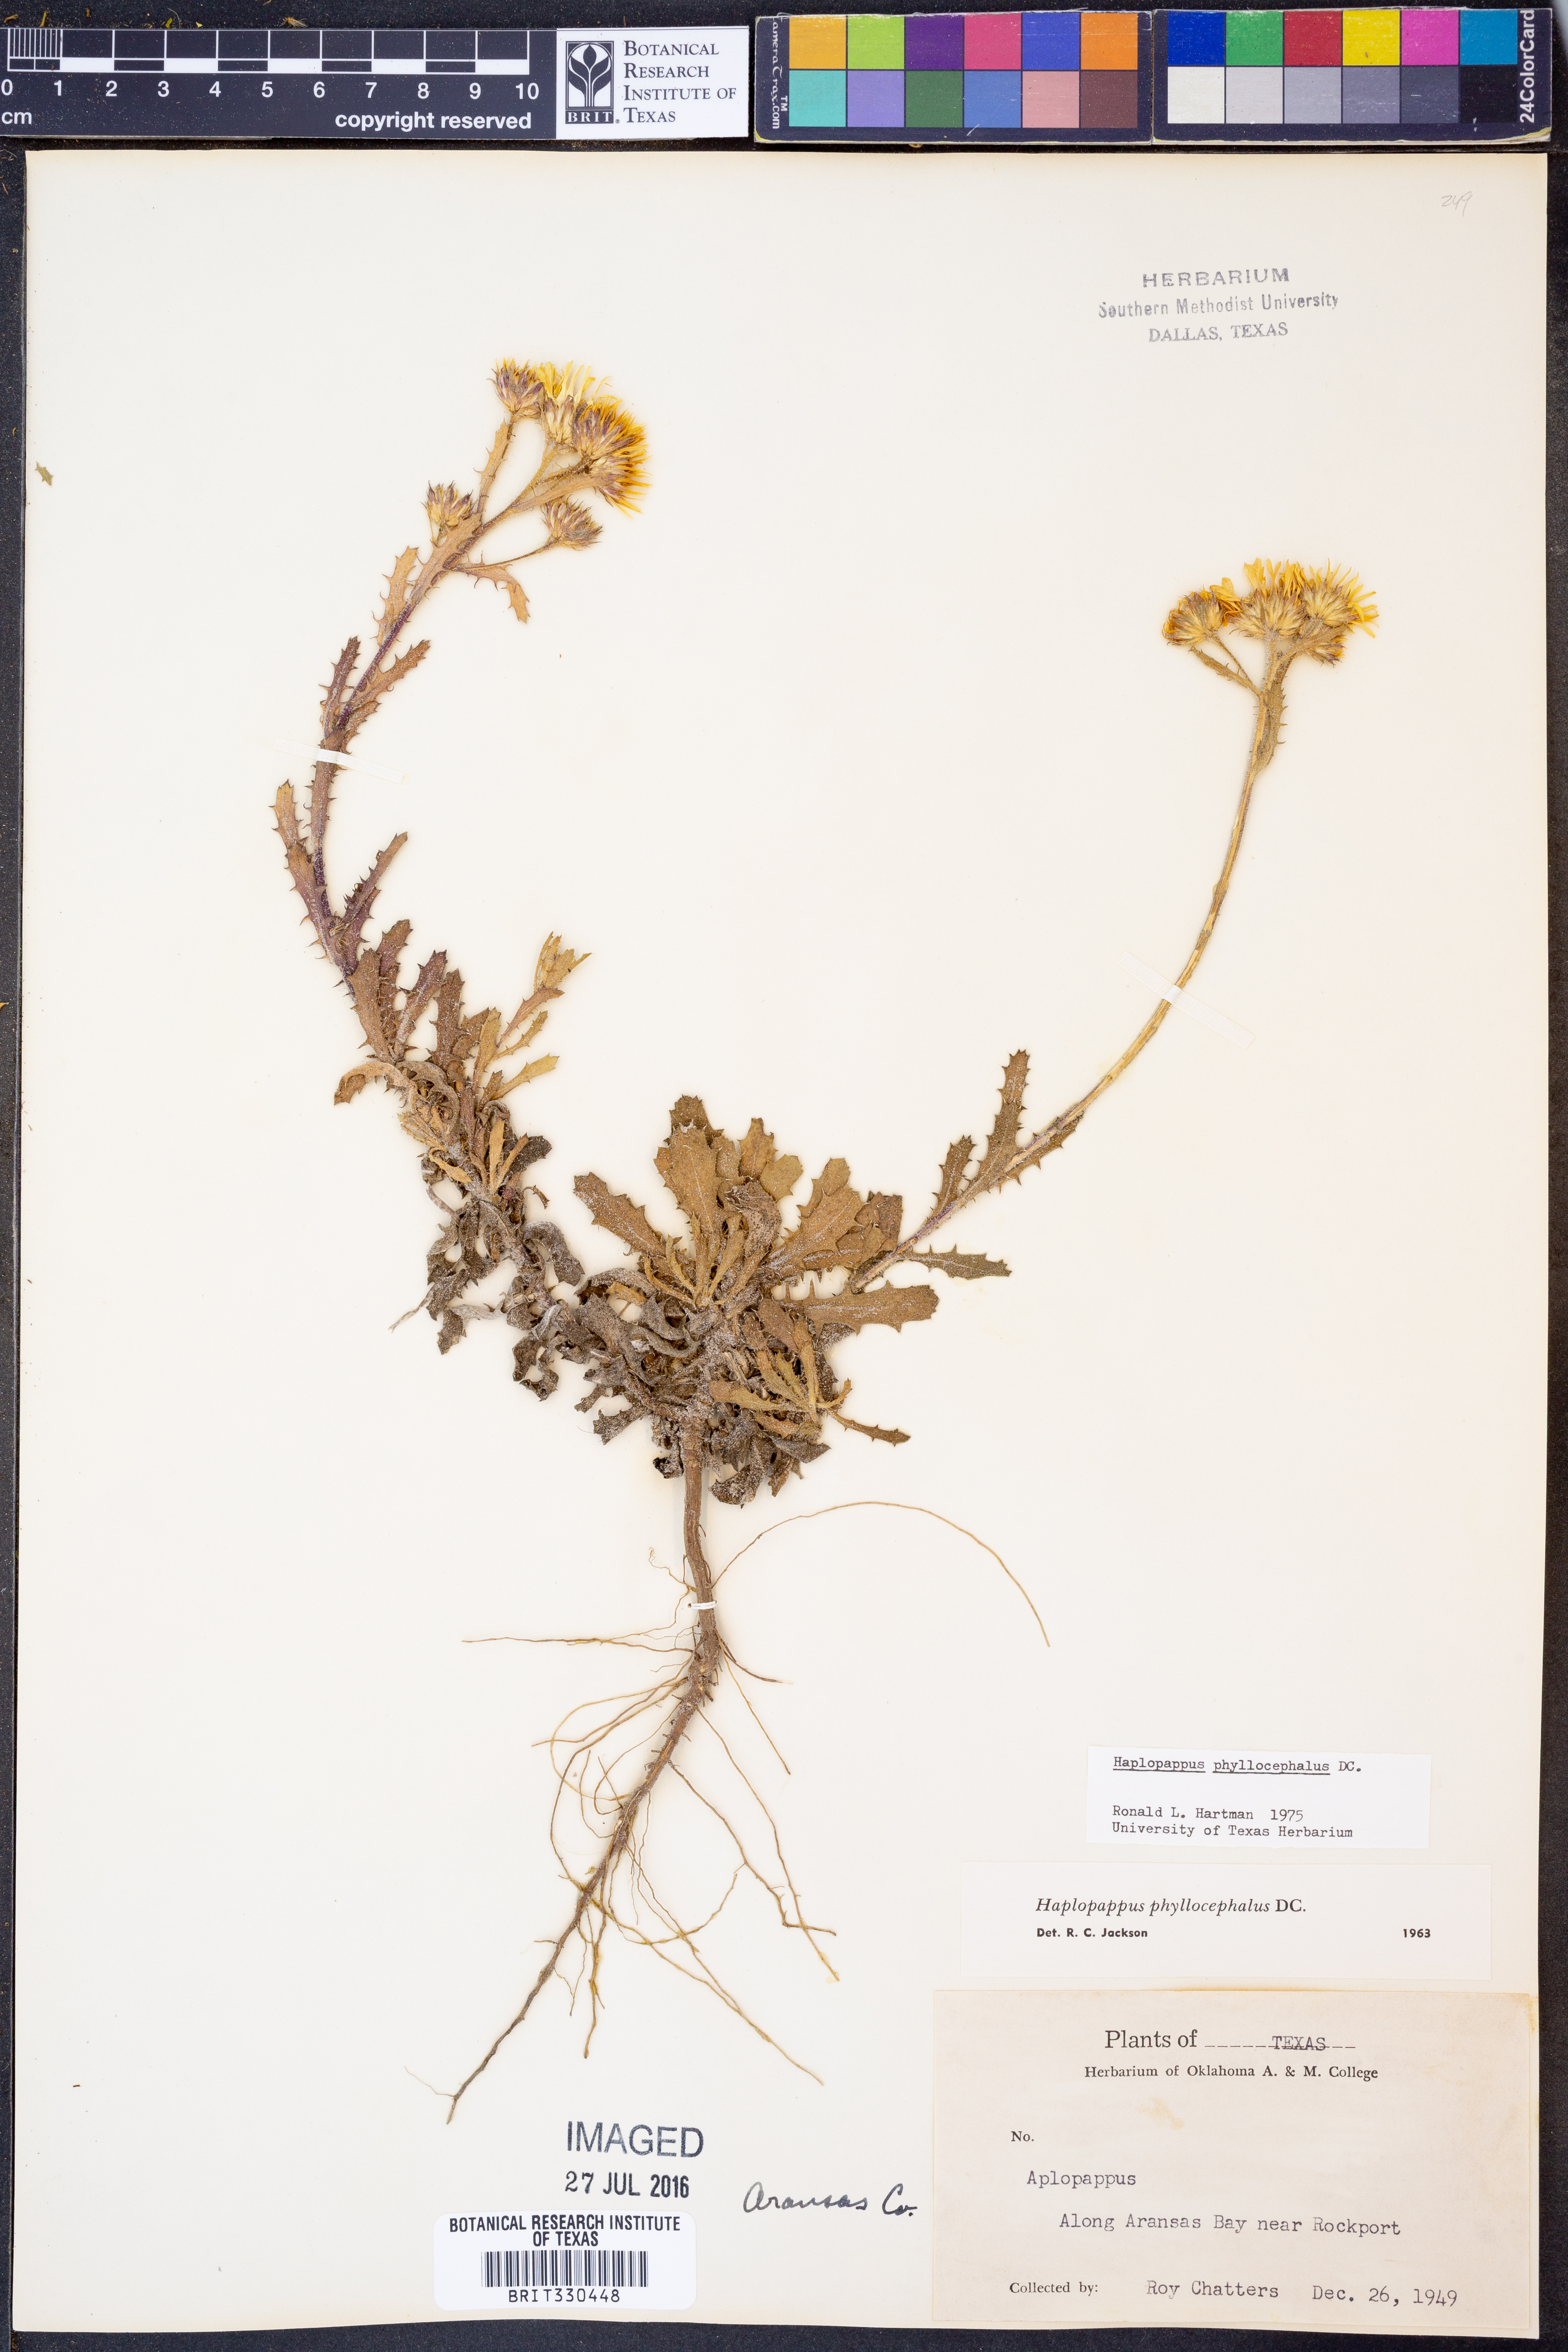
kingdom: Plantae
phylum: Tracheophyta
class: Magnoliopsida
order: Asterales
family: Asteraceae
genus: Rayjacksonia
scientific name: Rayjacksonia phyllocephala
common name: Gulf coast camphor daisy
